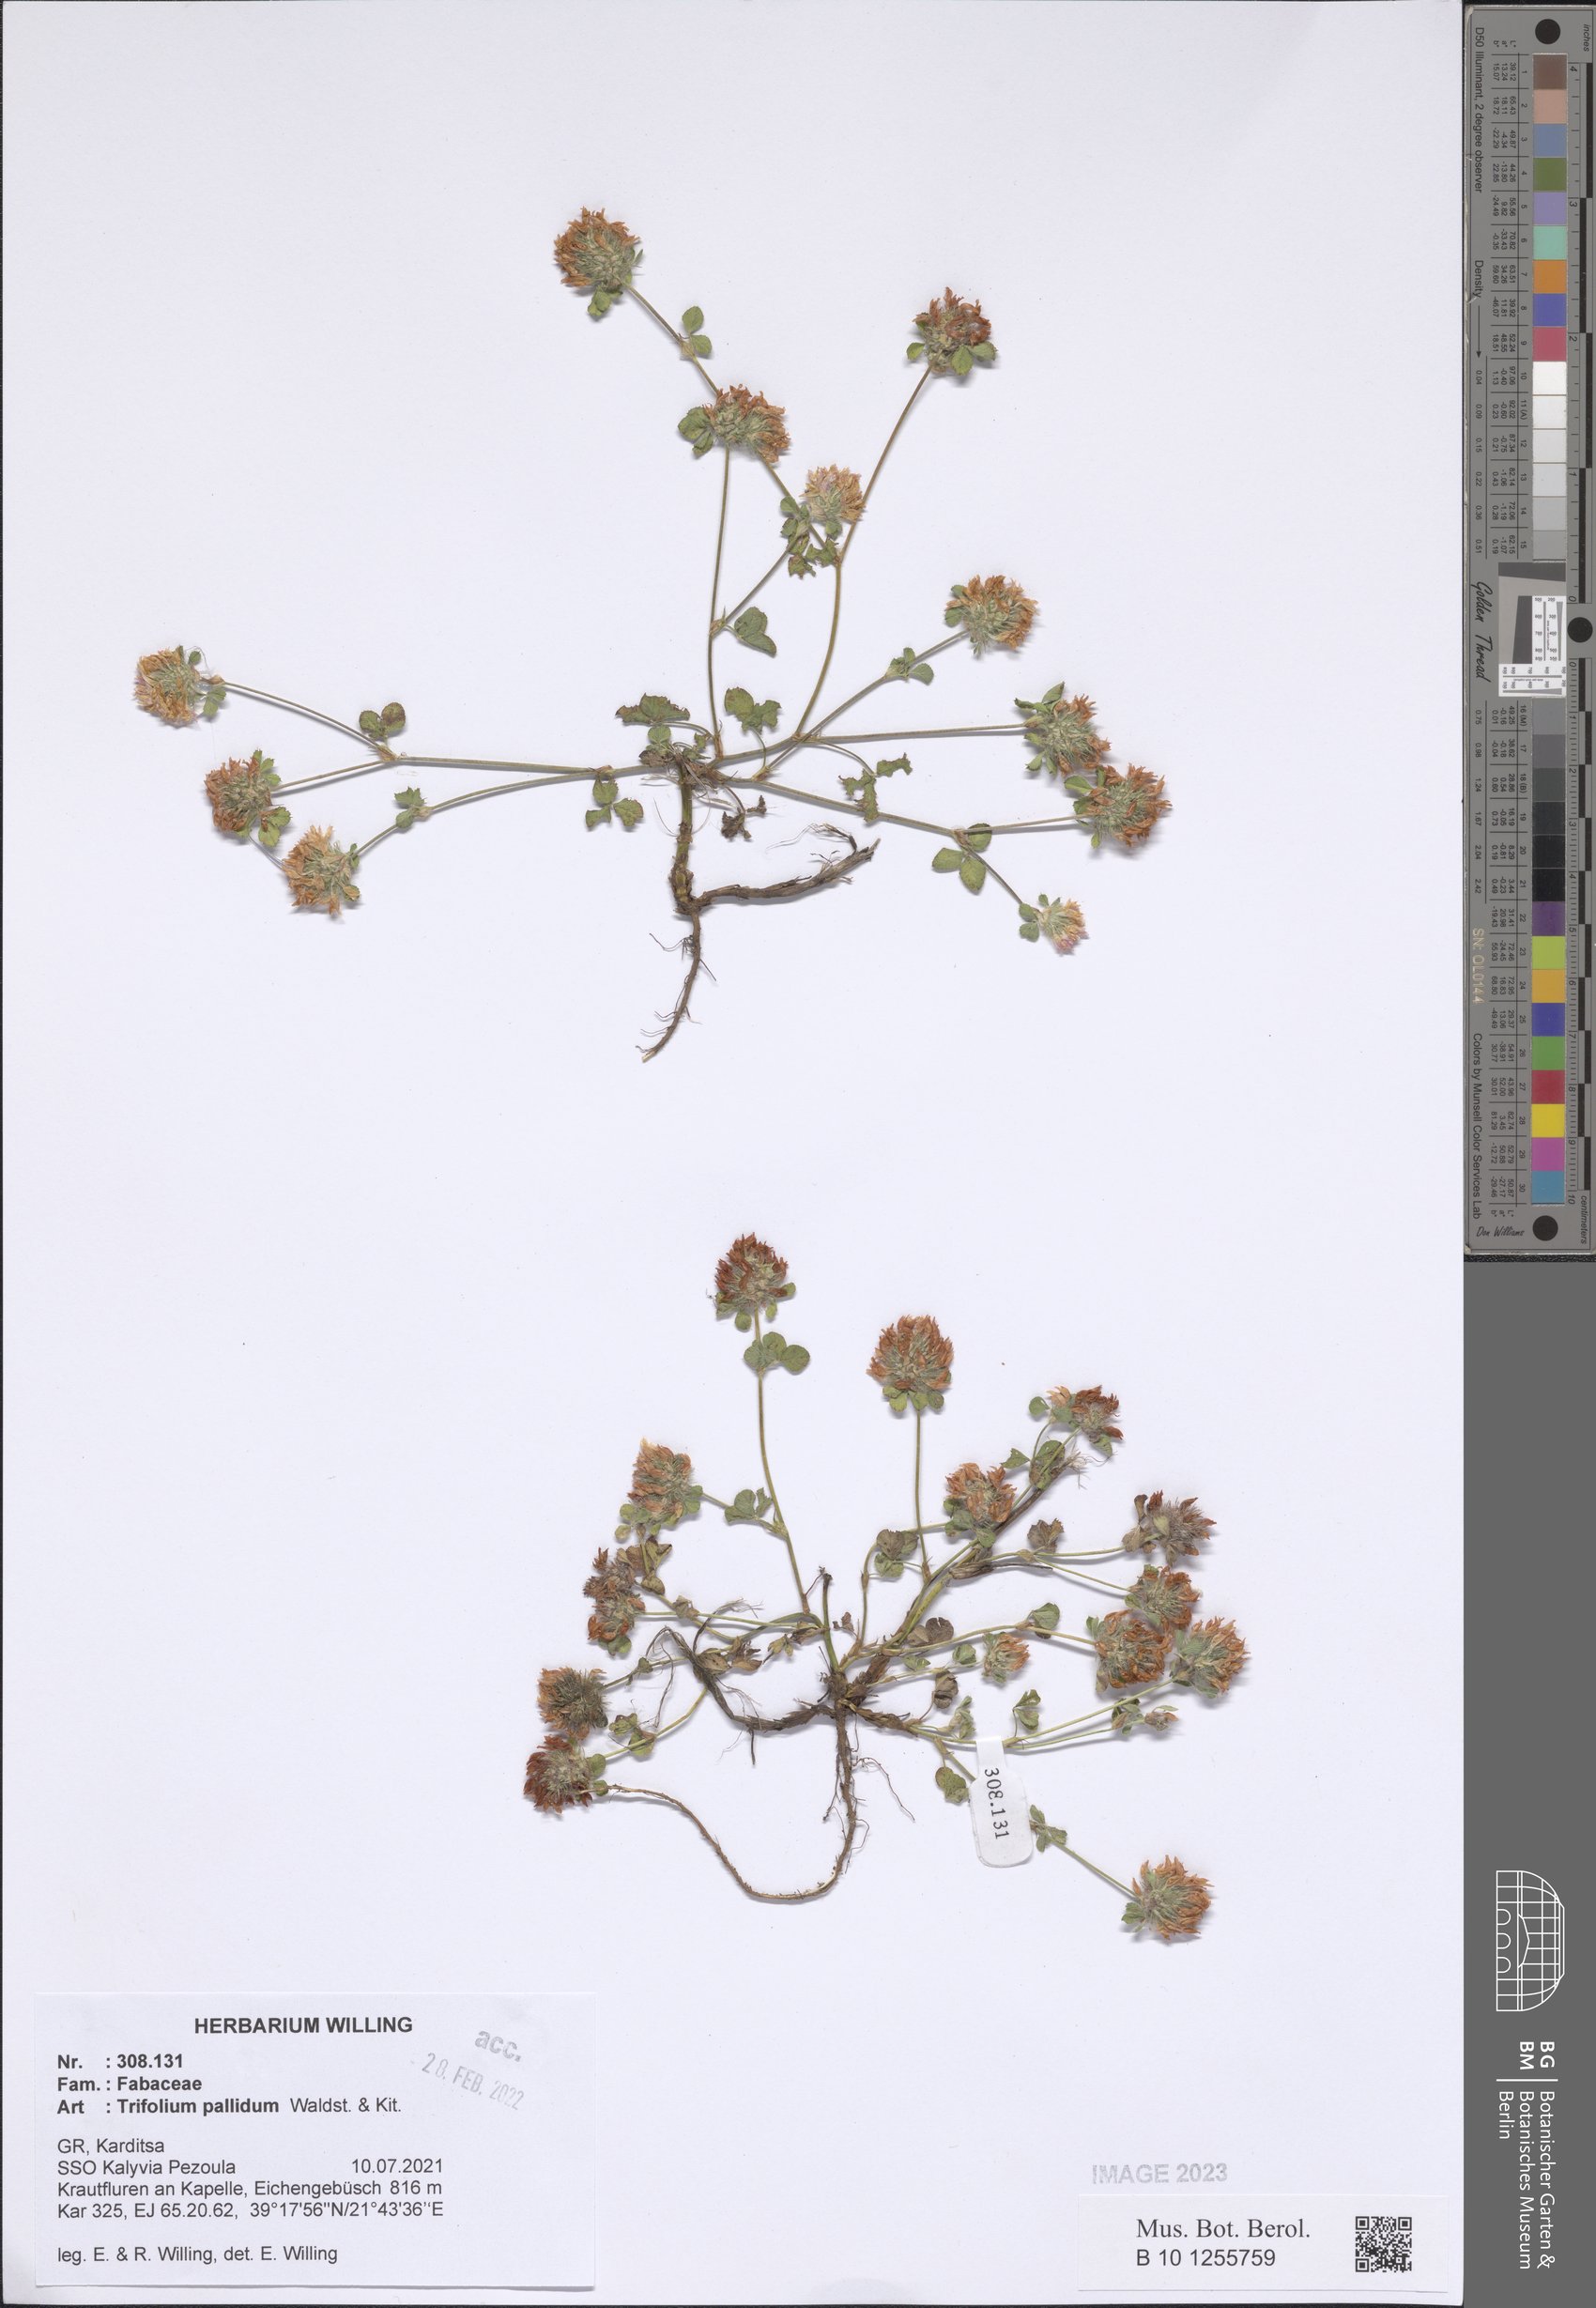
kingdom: Plantae
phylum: Tracheophyta
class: Magnoliopsida
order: Fabales
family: Fabaceae
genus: Trifolium
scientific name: Trifolium pallidum
